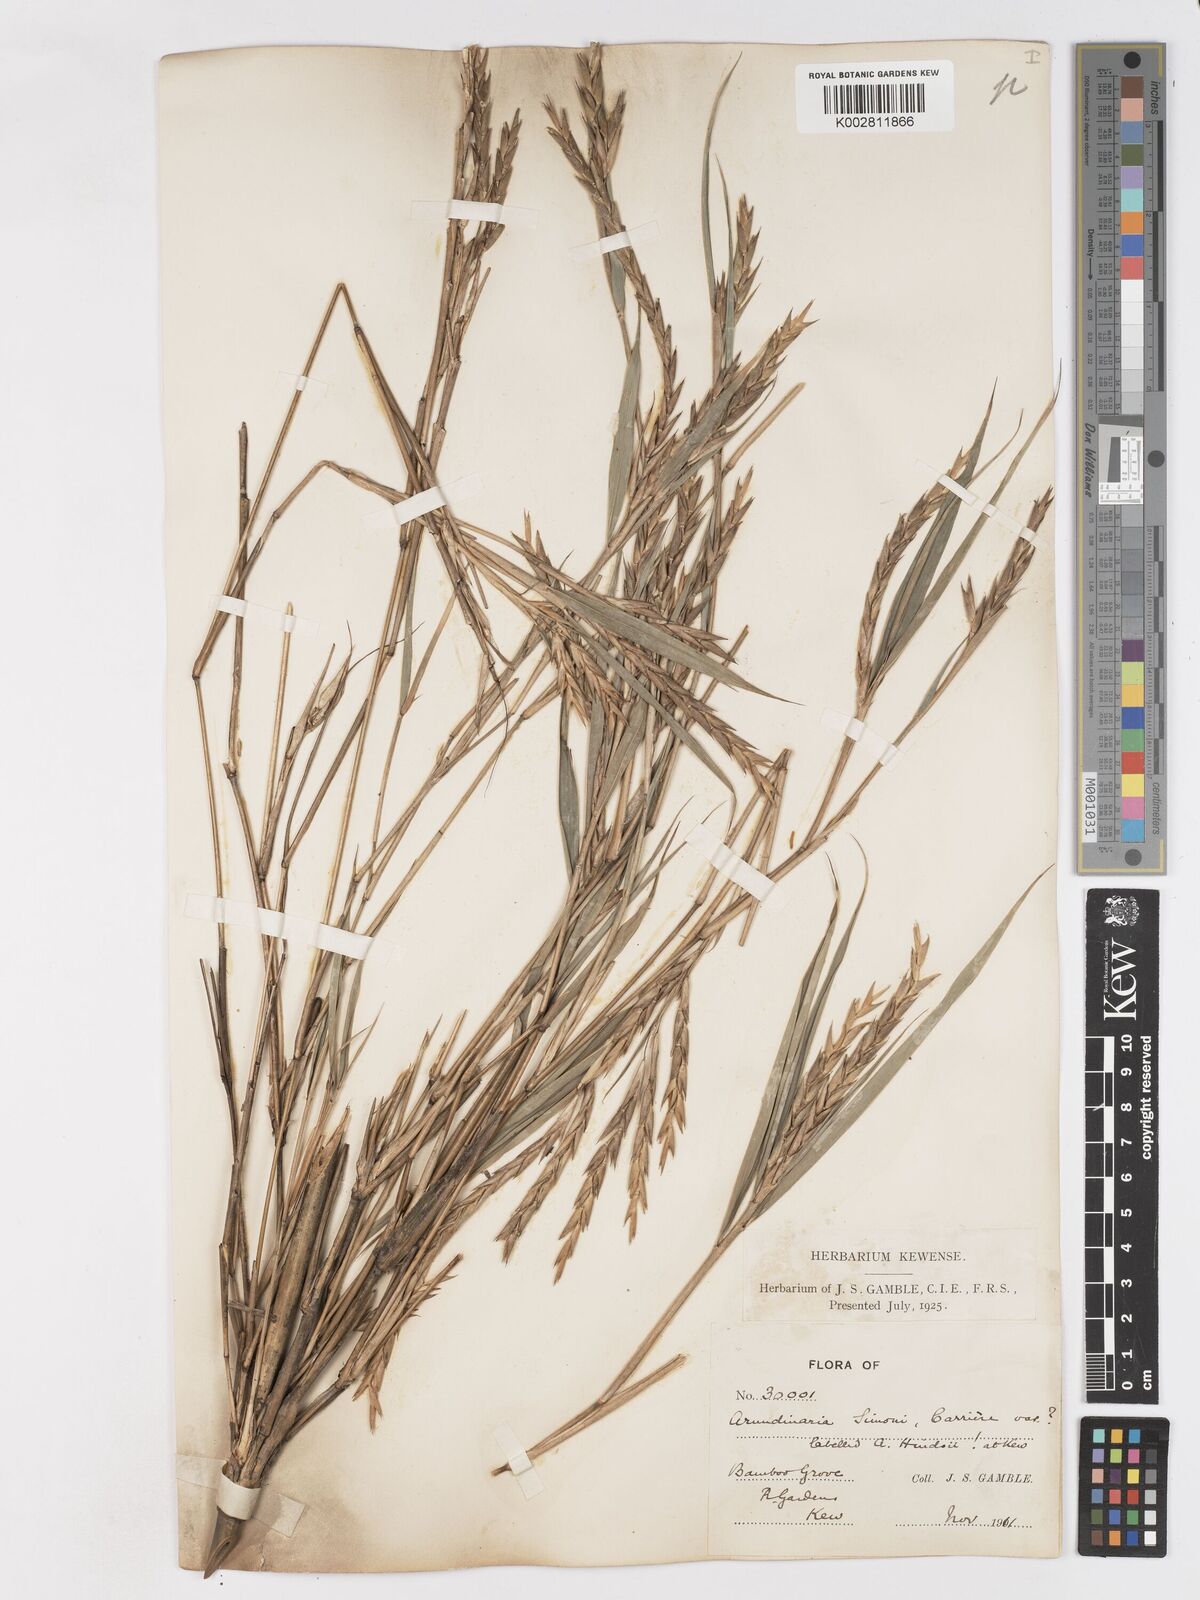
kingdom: Plantae
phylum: Tracheophyta
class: Liliopsida
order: Poales
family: Poaceae
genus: Pleioblastus
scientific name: Pleioblastus simonii
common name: Simon bamboo
